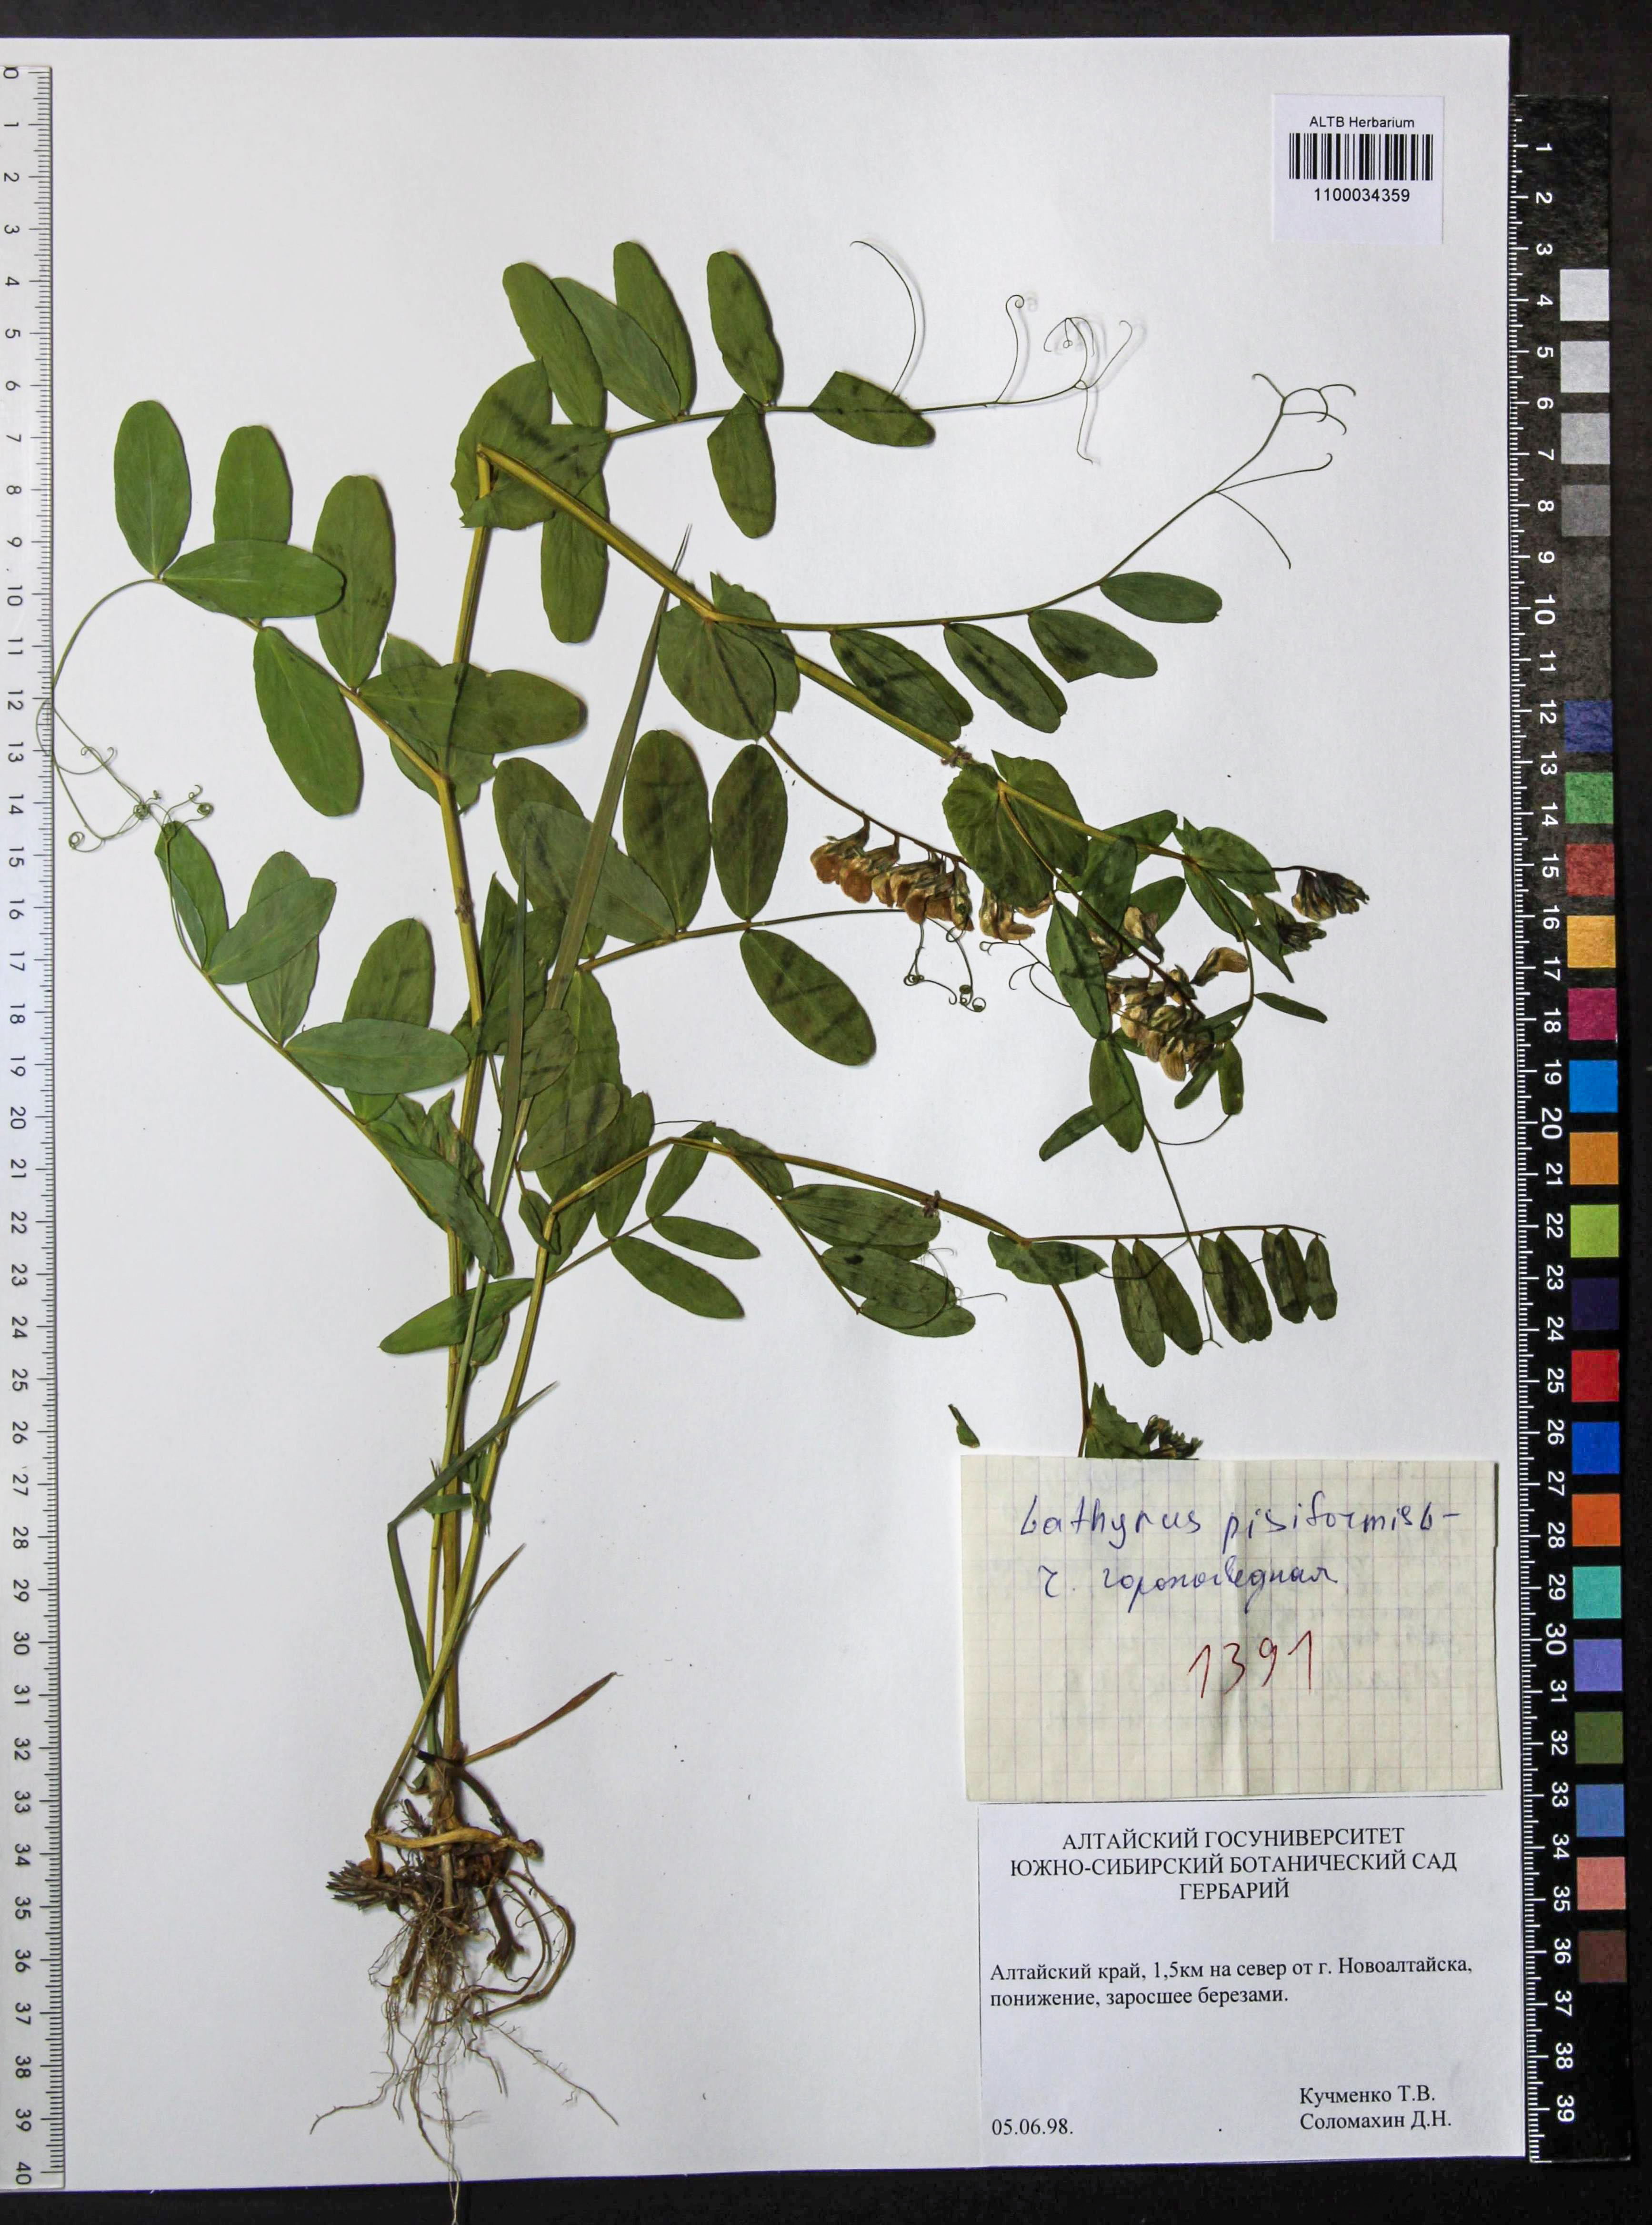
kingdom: Plantae
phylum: Tracheophyta
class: Magnoliopsida
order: Fabales
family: Fabaceae
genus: Lathyrus
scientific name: Lathyrus pisiformis
